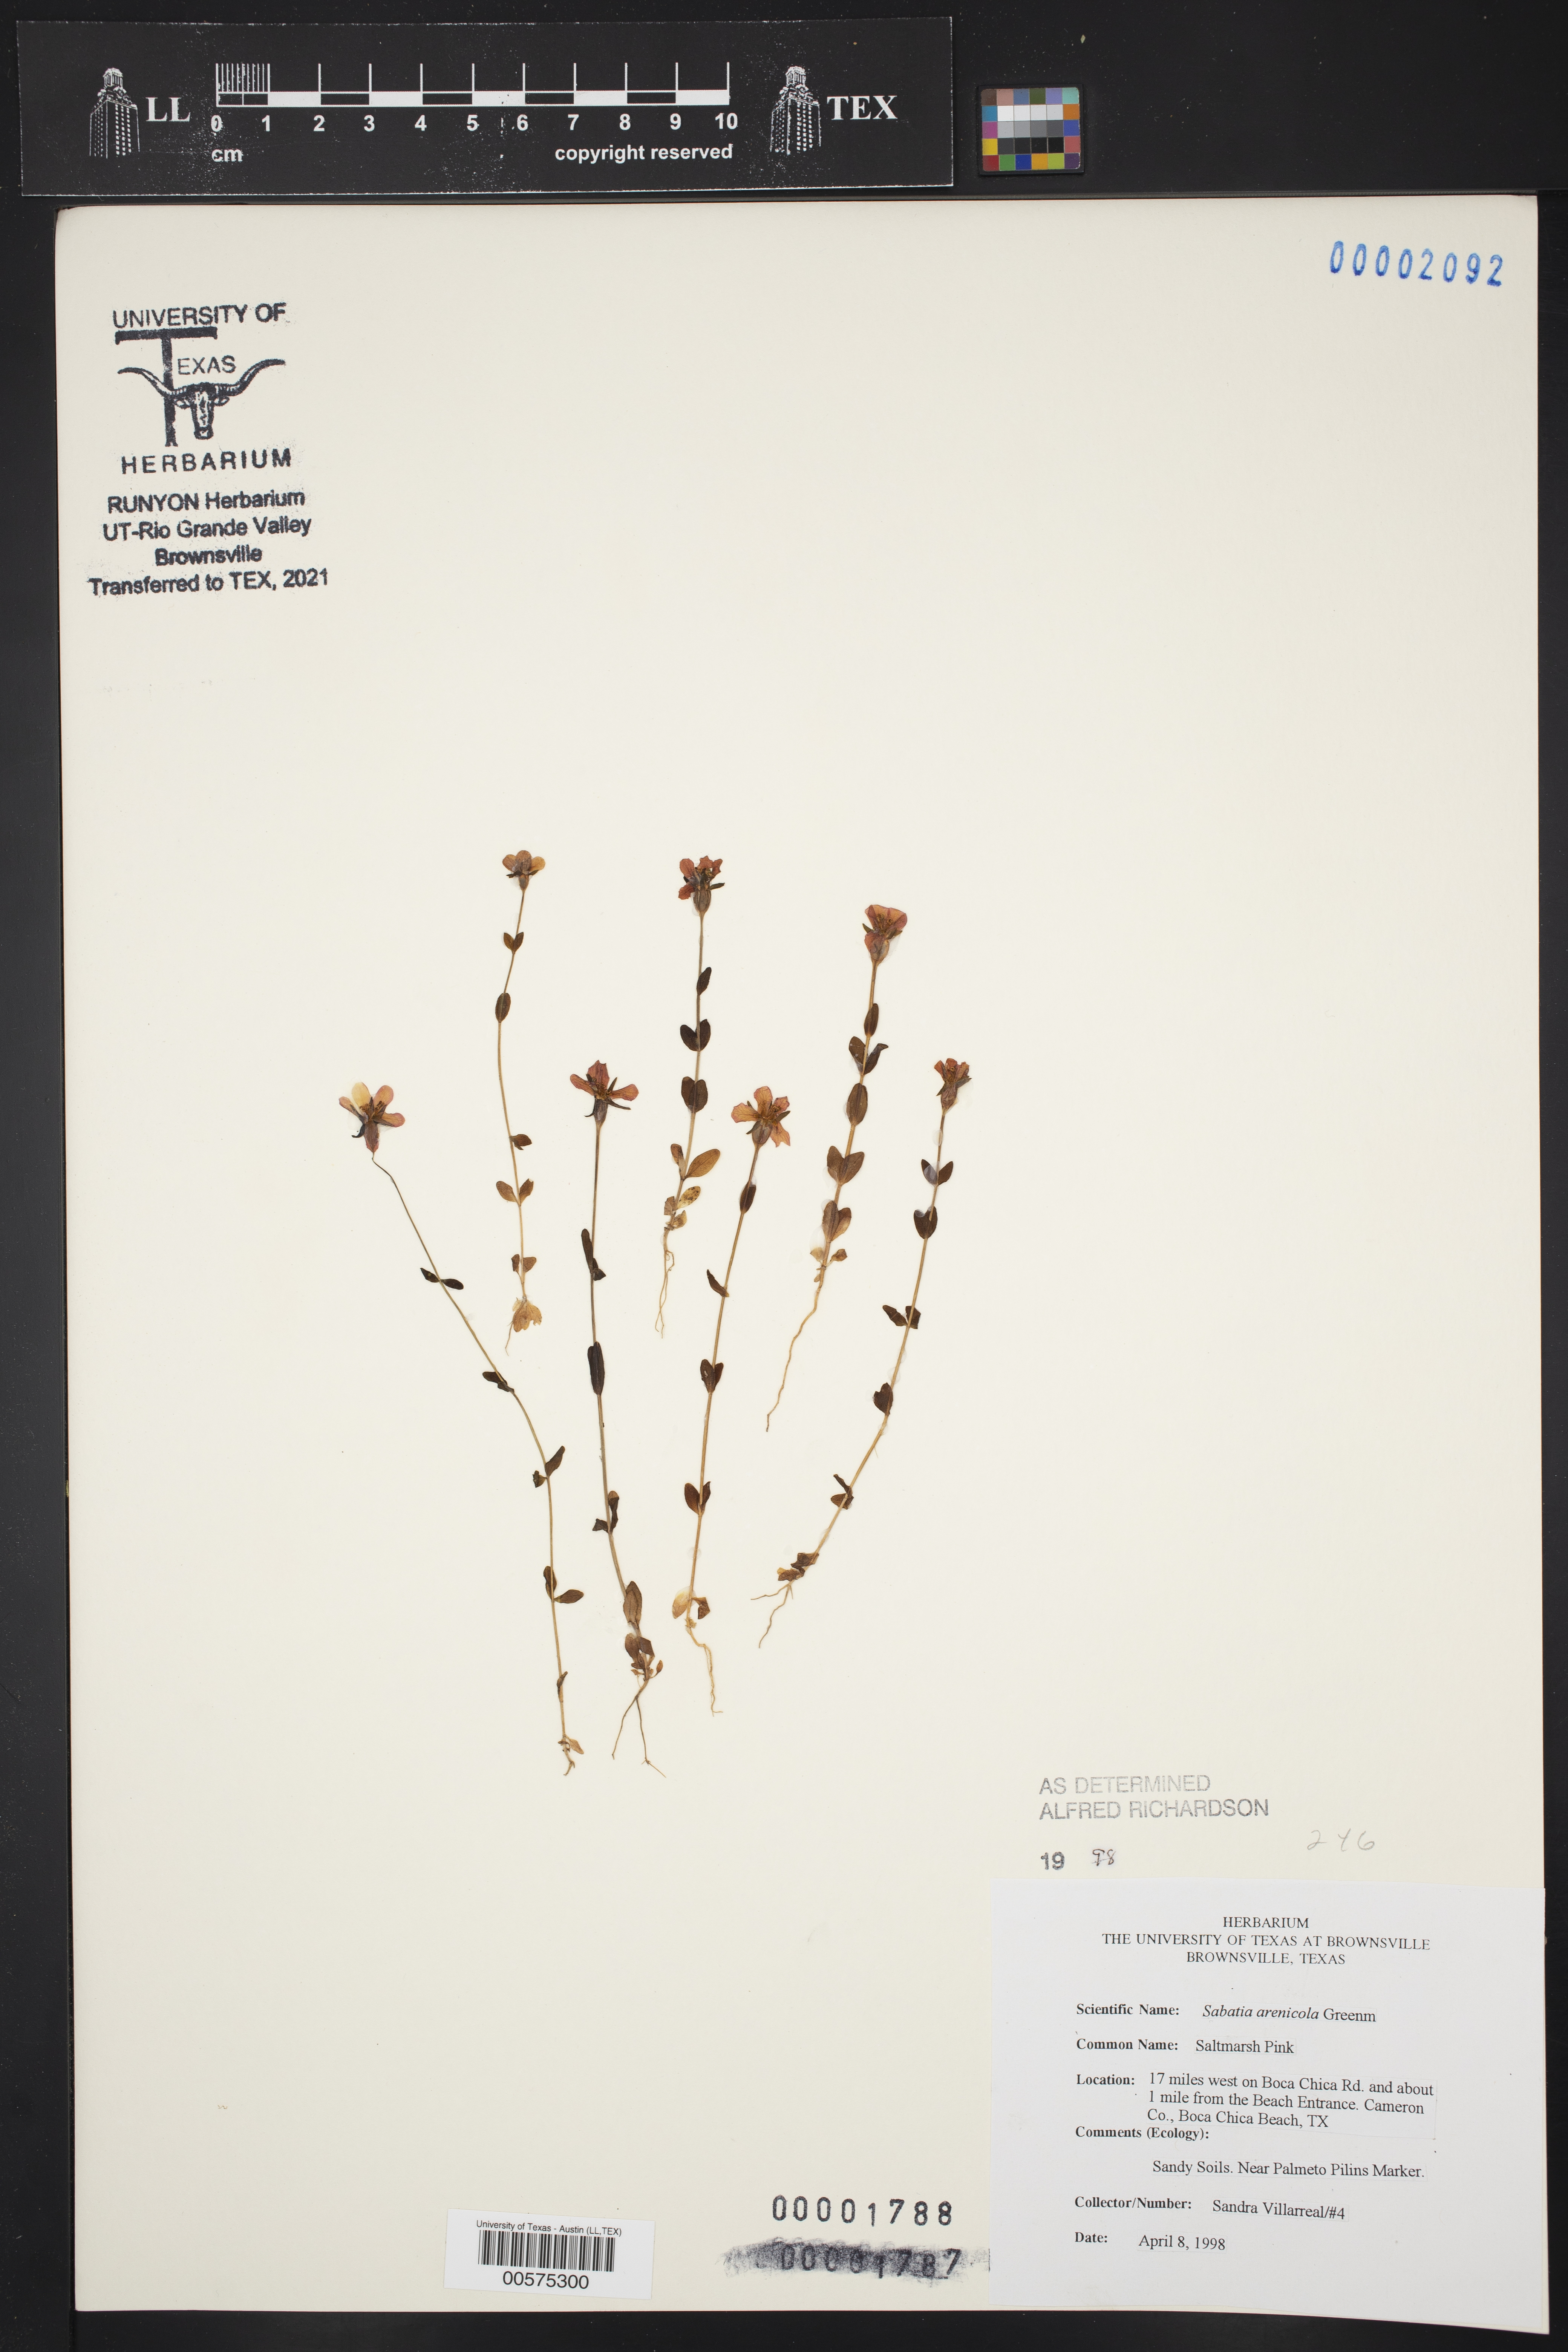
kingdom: Plantae
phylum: Tracheophyta
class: Magnoliopsida
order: Gentianales
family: Gentianaceae
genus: Sabatia
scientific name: Sabatia arenicola
